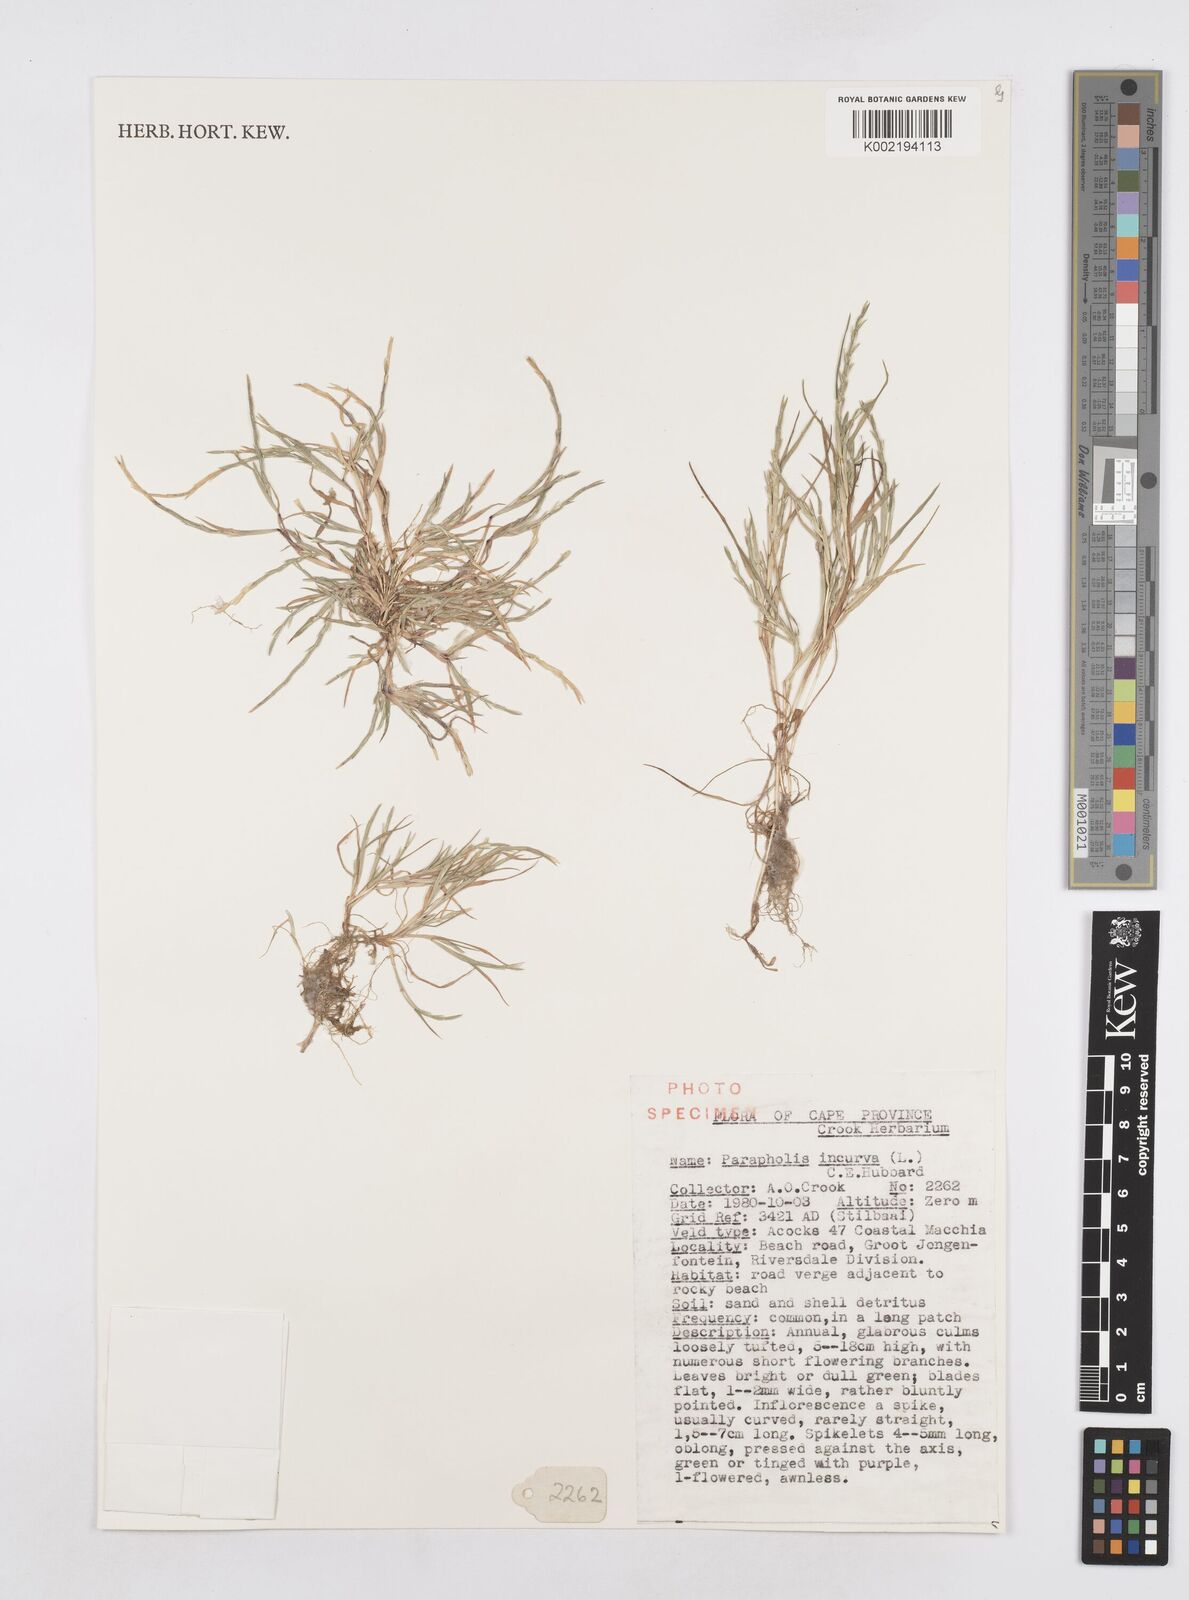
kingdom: Plantae
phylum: Tracheophyta
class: Liliopsida
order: Poales
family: Poaceae
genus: Parapholis
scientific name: Parapholis incurva
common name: Curved sicklegrass
